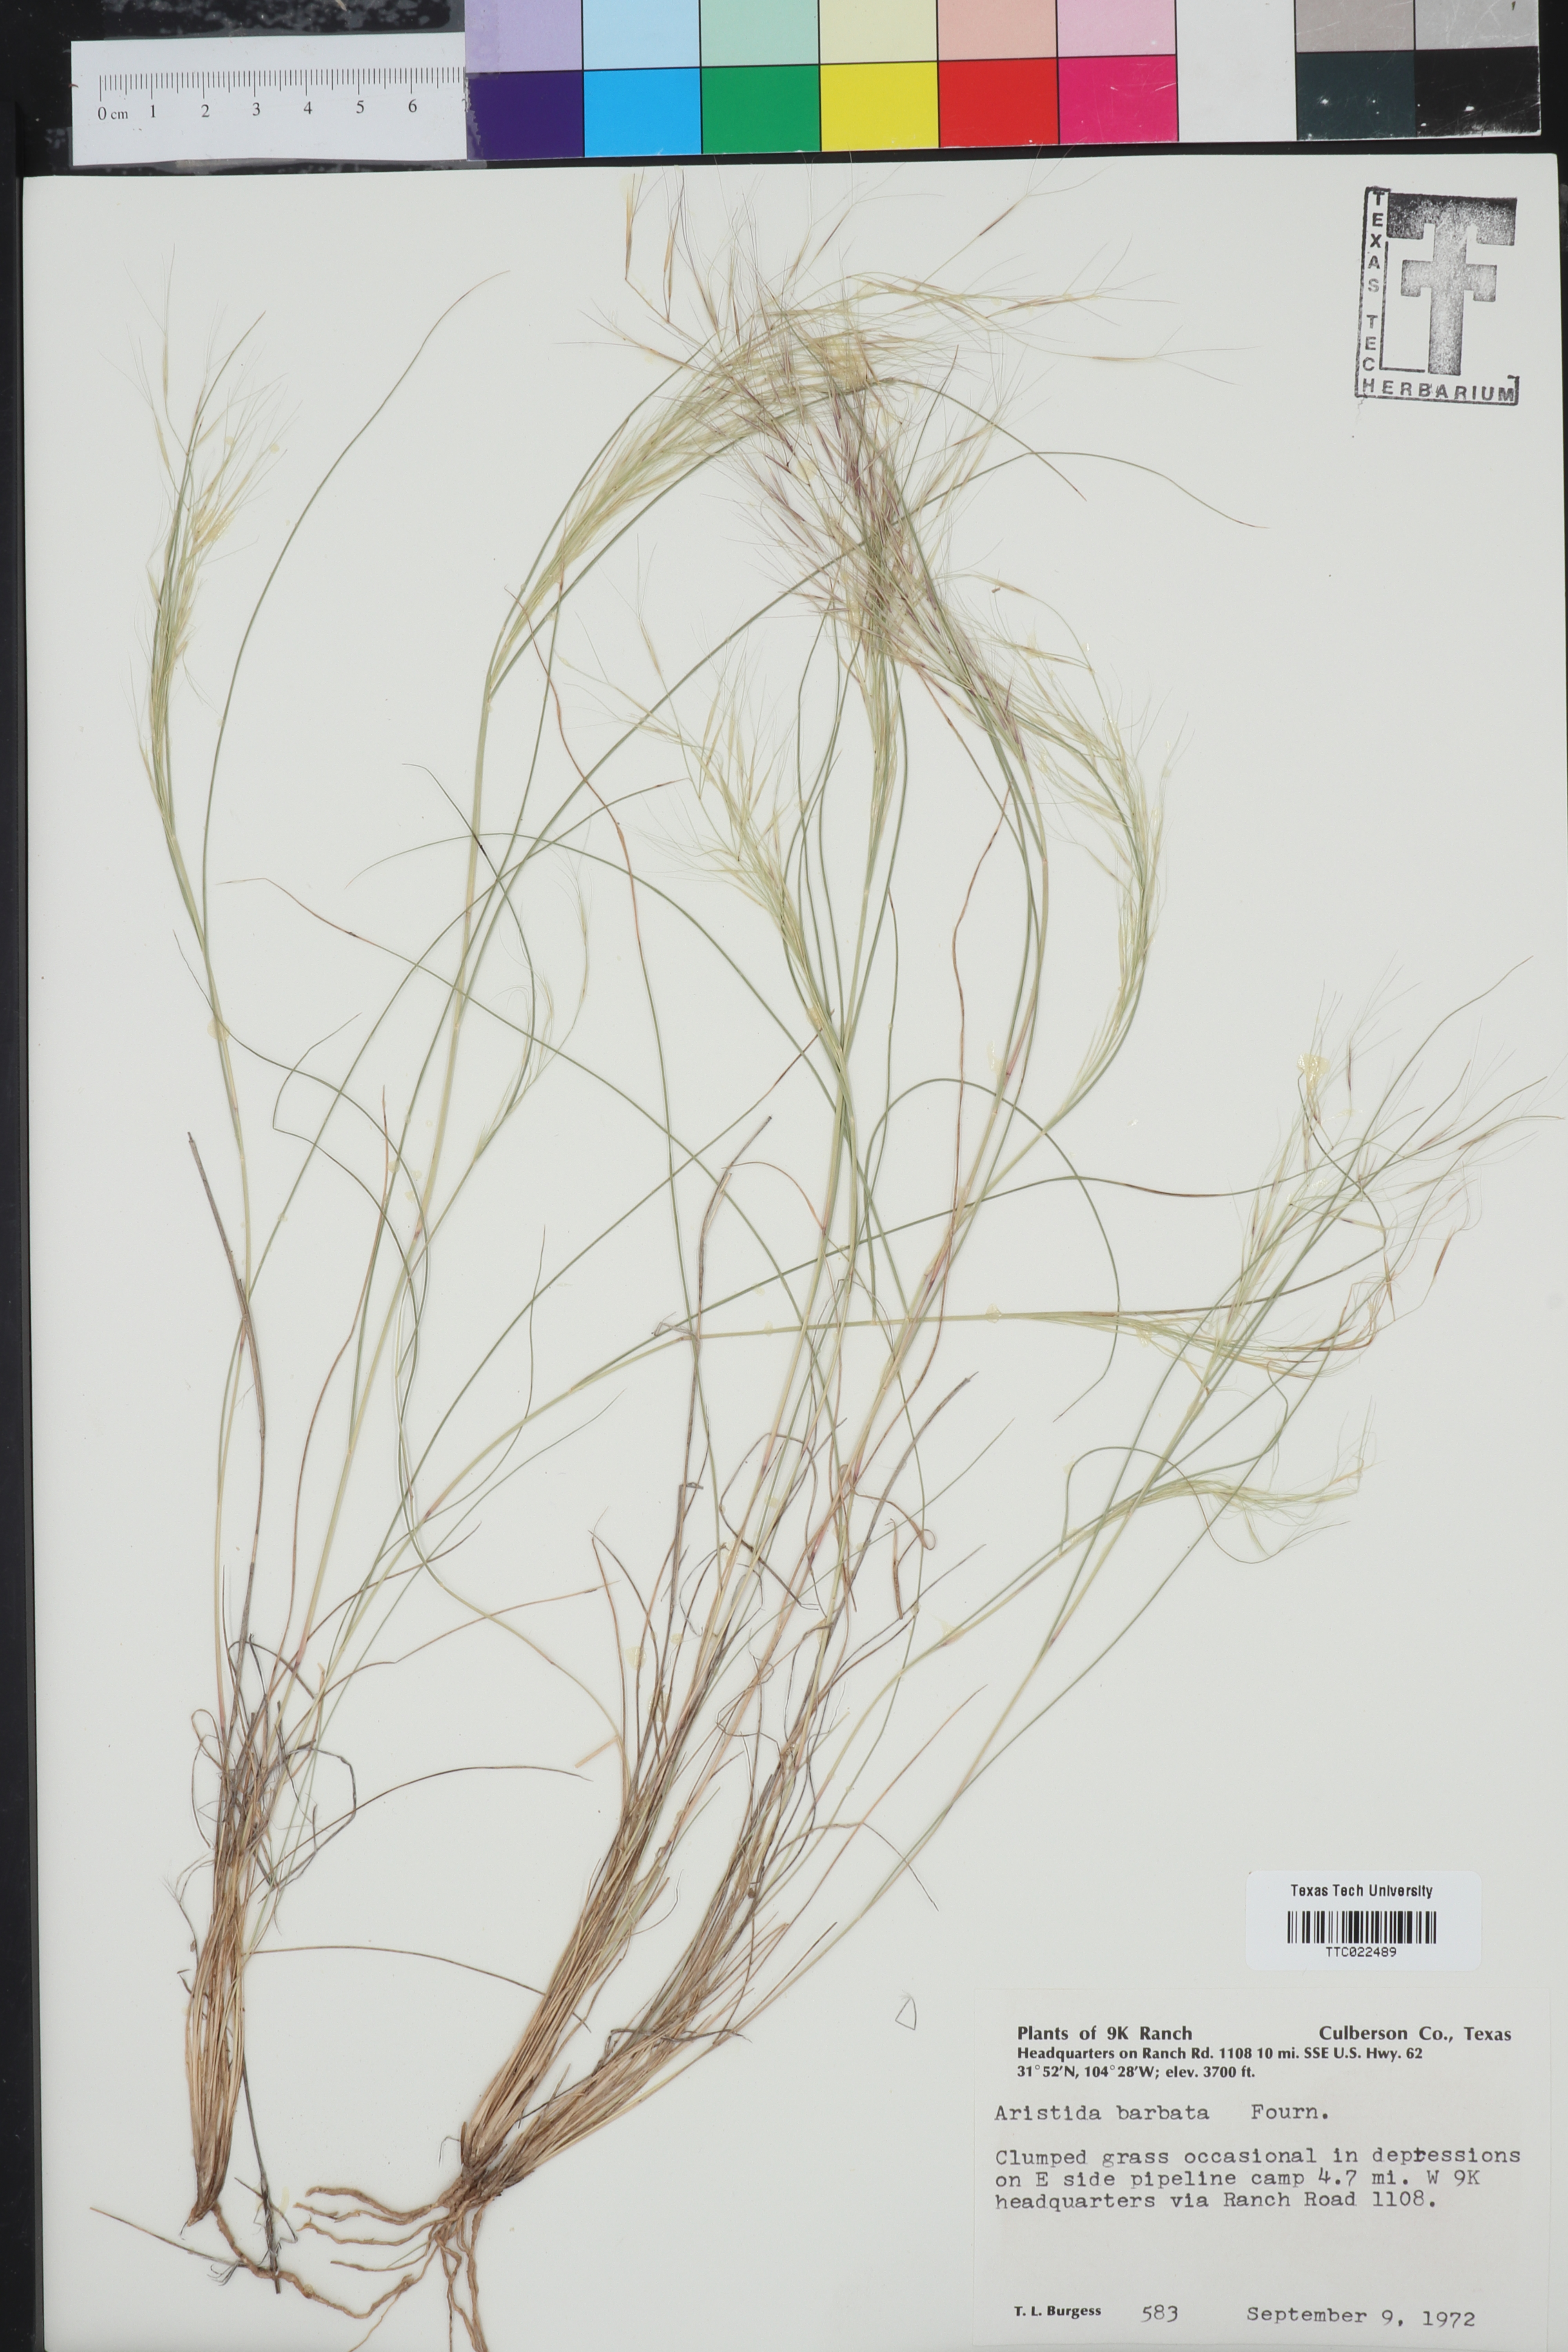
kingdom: Plantae
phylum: Tracheophyta
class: Liliopsida
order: Poales
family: Poaceae
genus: Aristida
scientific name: Aristida barbata
